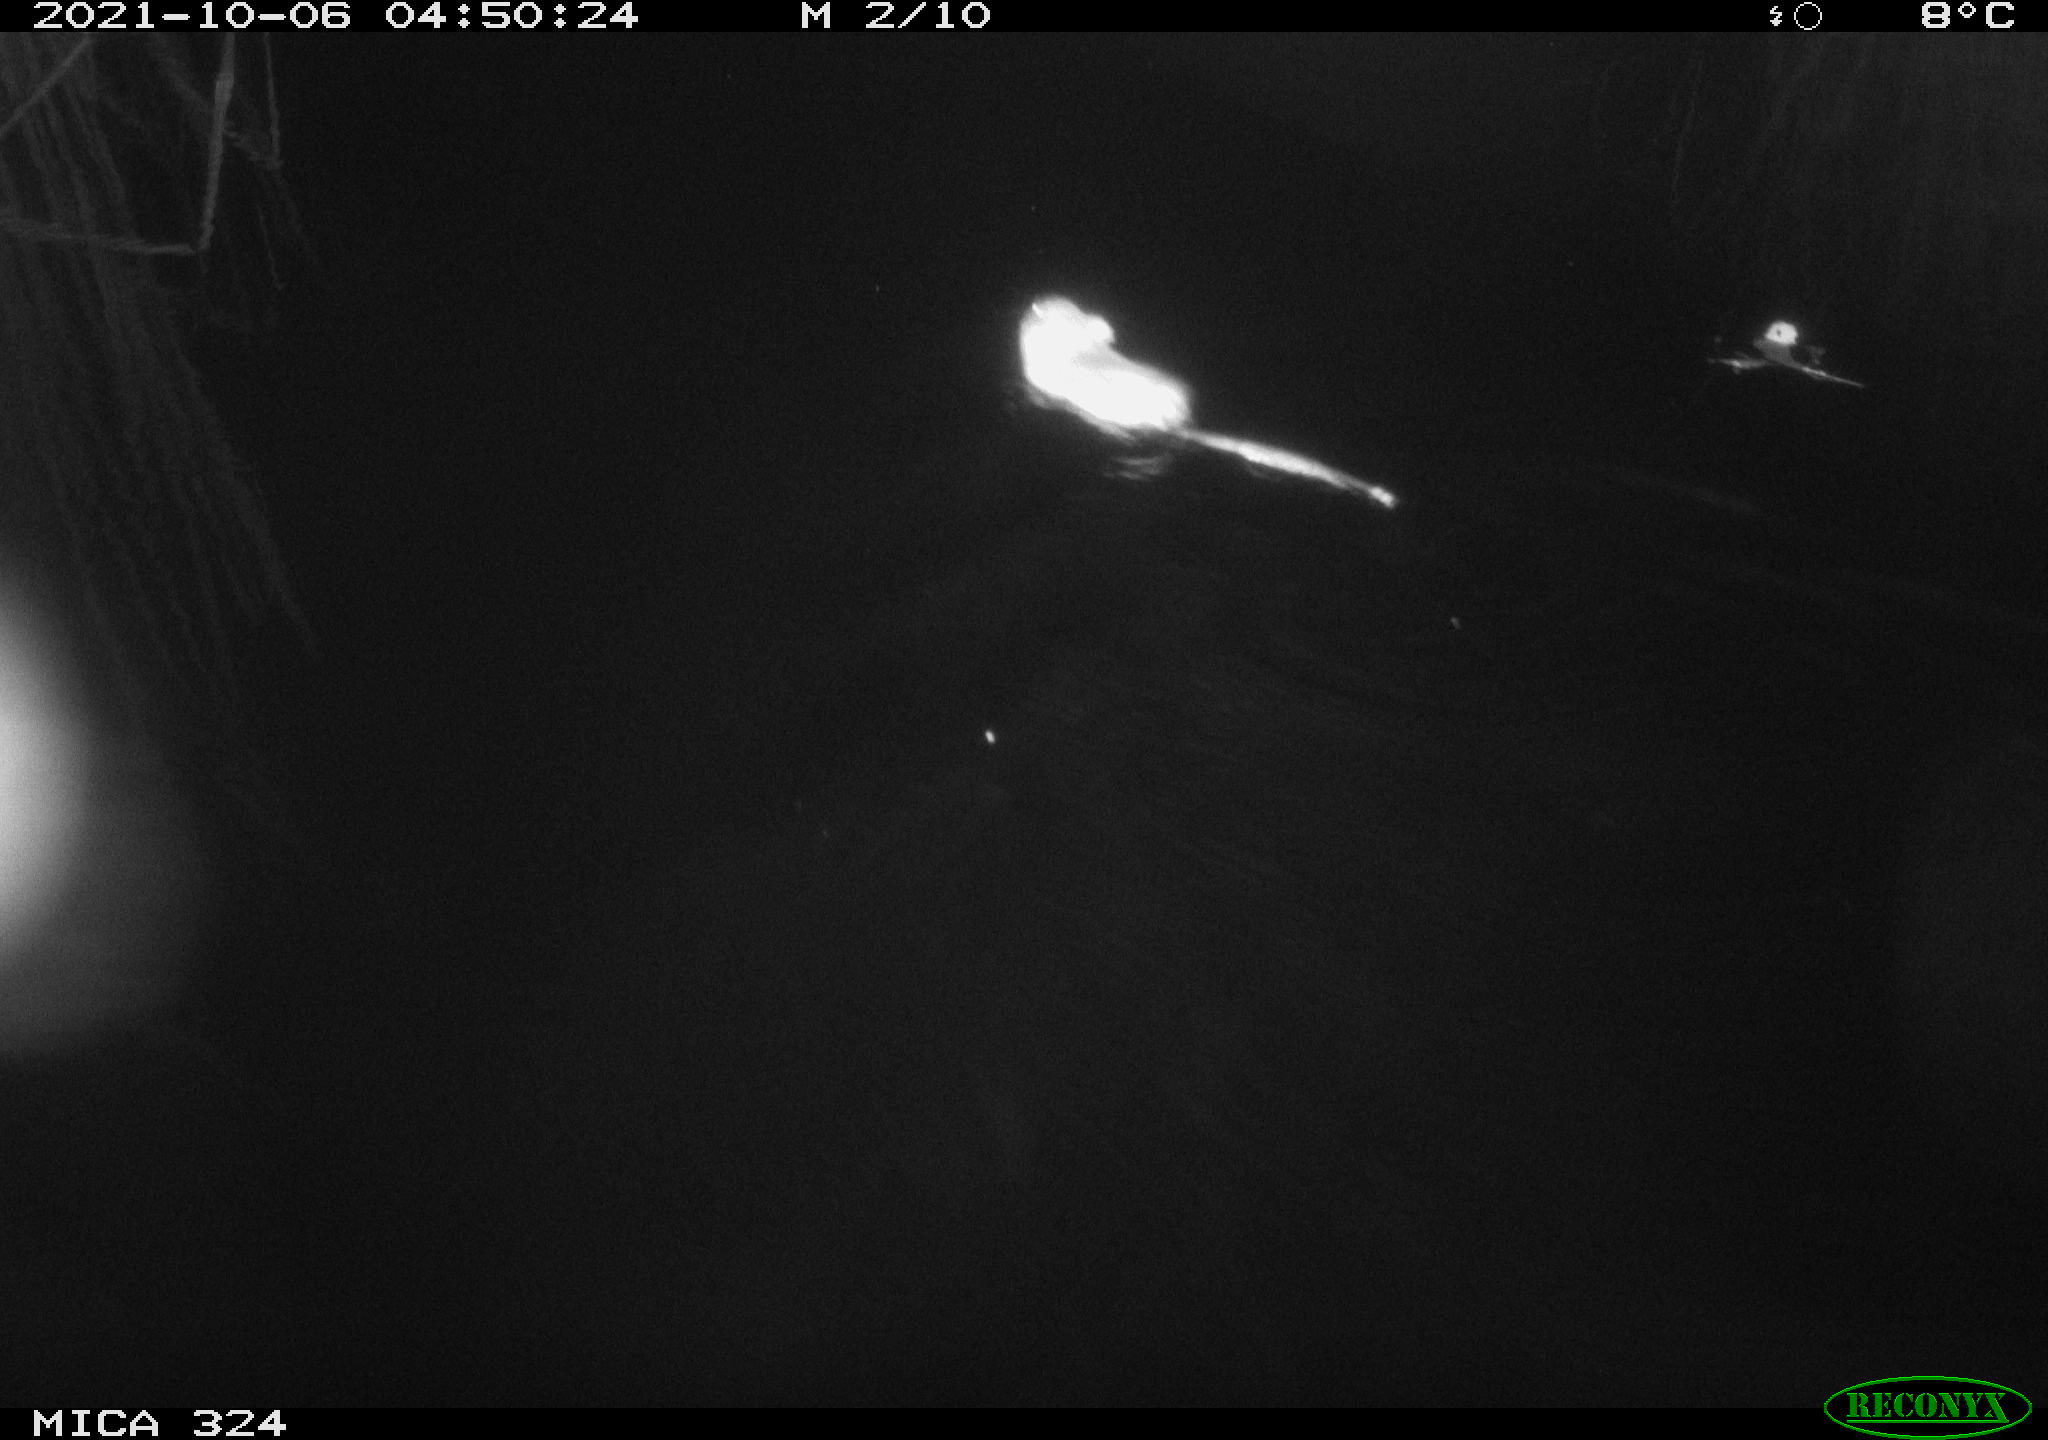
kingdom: Animalia
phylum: Chordata
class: Mammalia
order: Rodentia
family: Cricetidae
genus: Ondatra
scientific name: Ondatra zibethicus
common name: Muskrat
